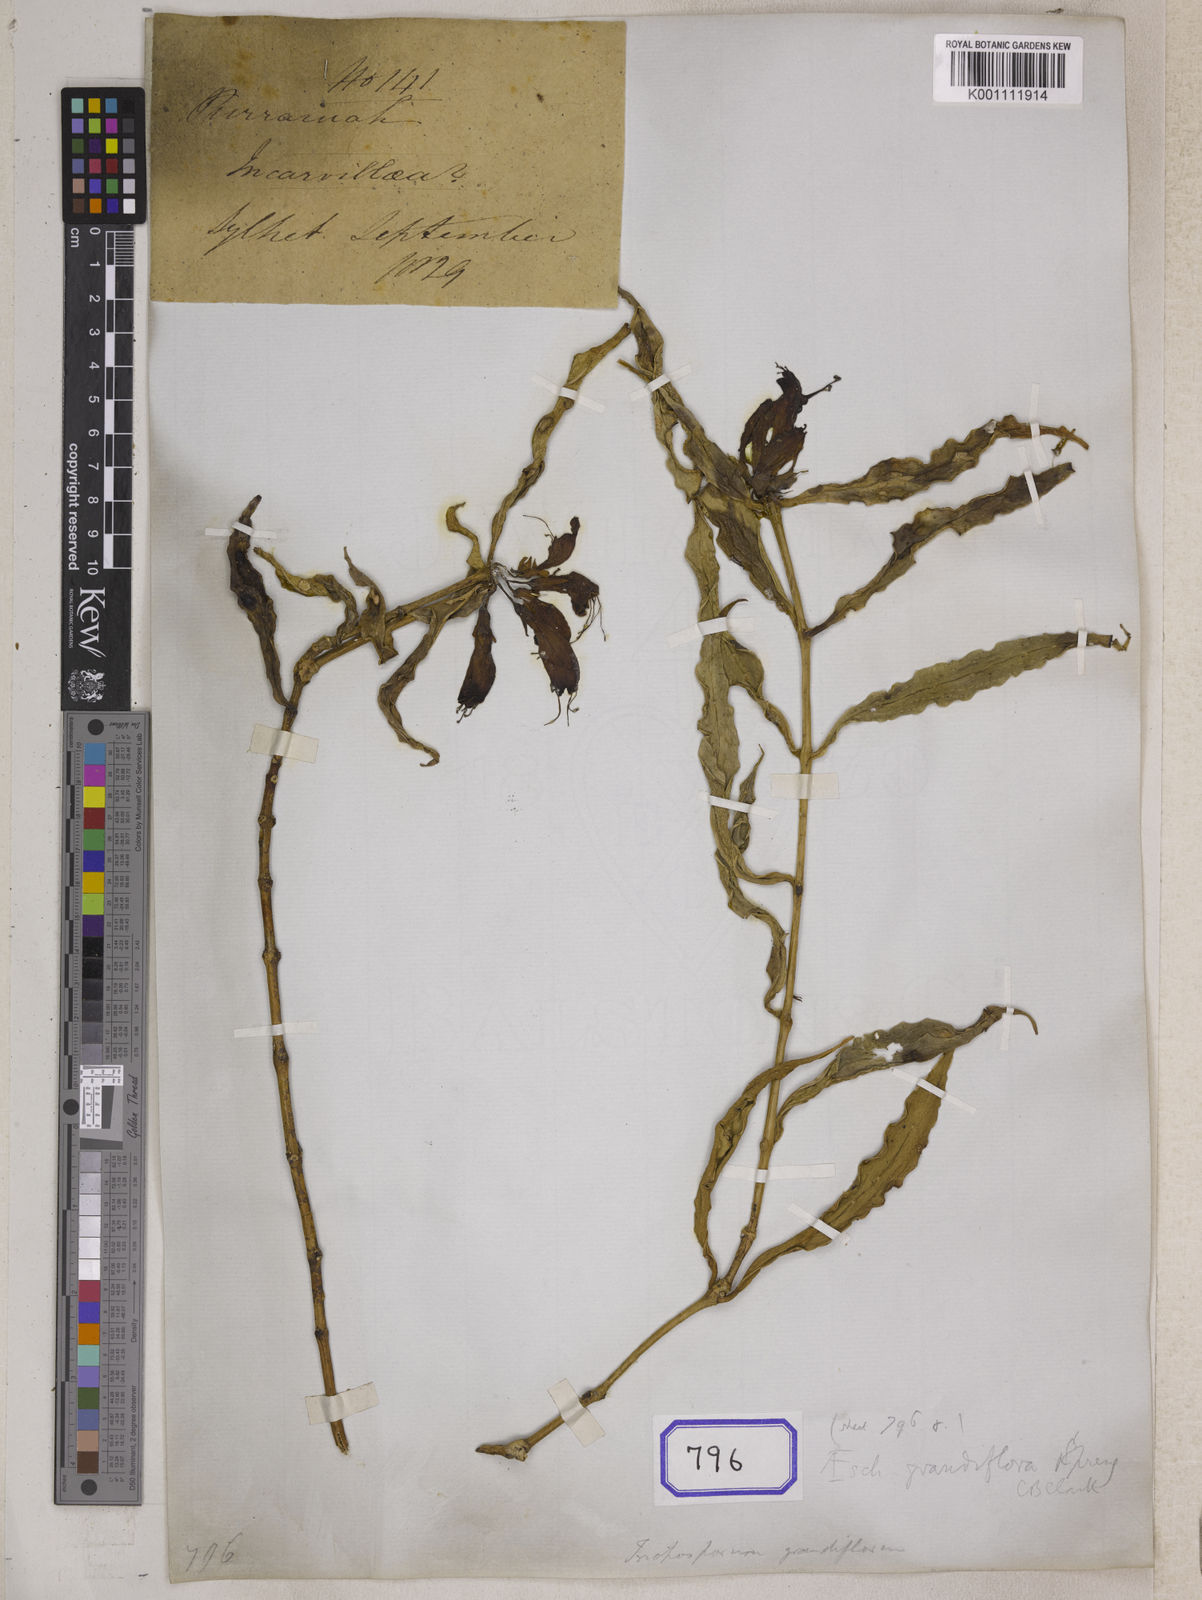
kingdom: Plantae
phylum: Tracheophyta
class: Magnoliopsida
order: Lamiales
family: Gesneriaceae
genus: Aeschynanthus
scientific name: Aeschynanthus parasiticus
